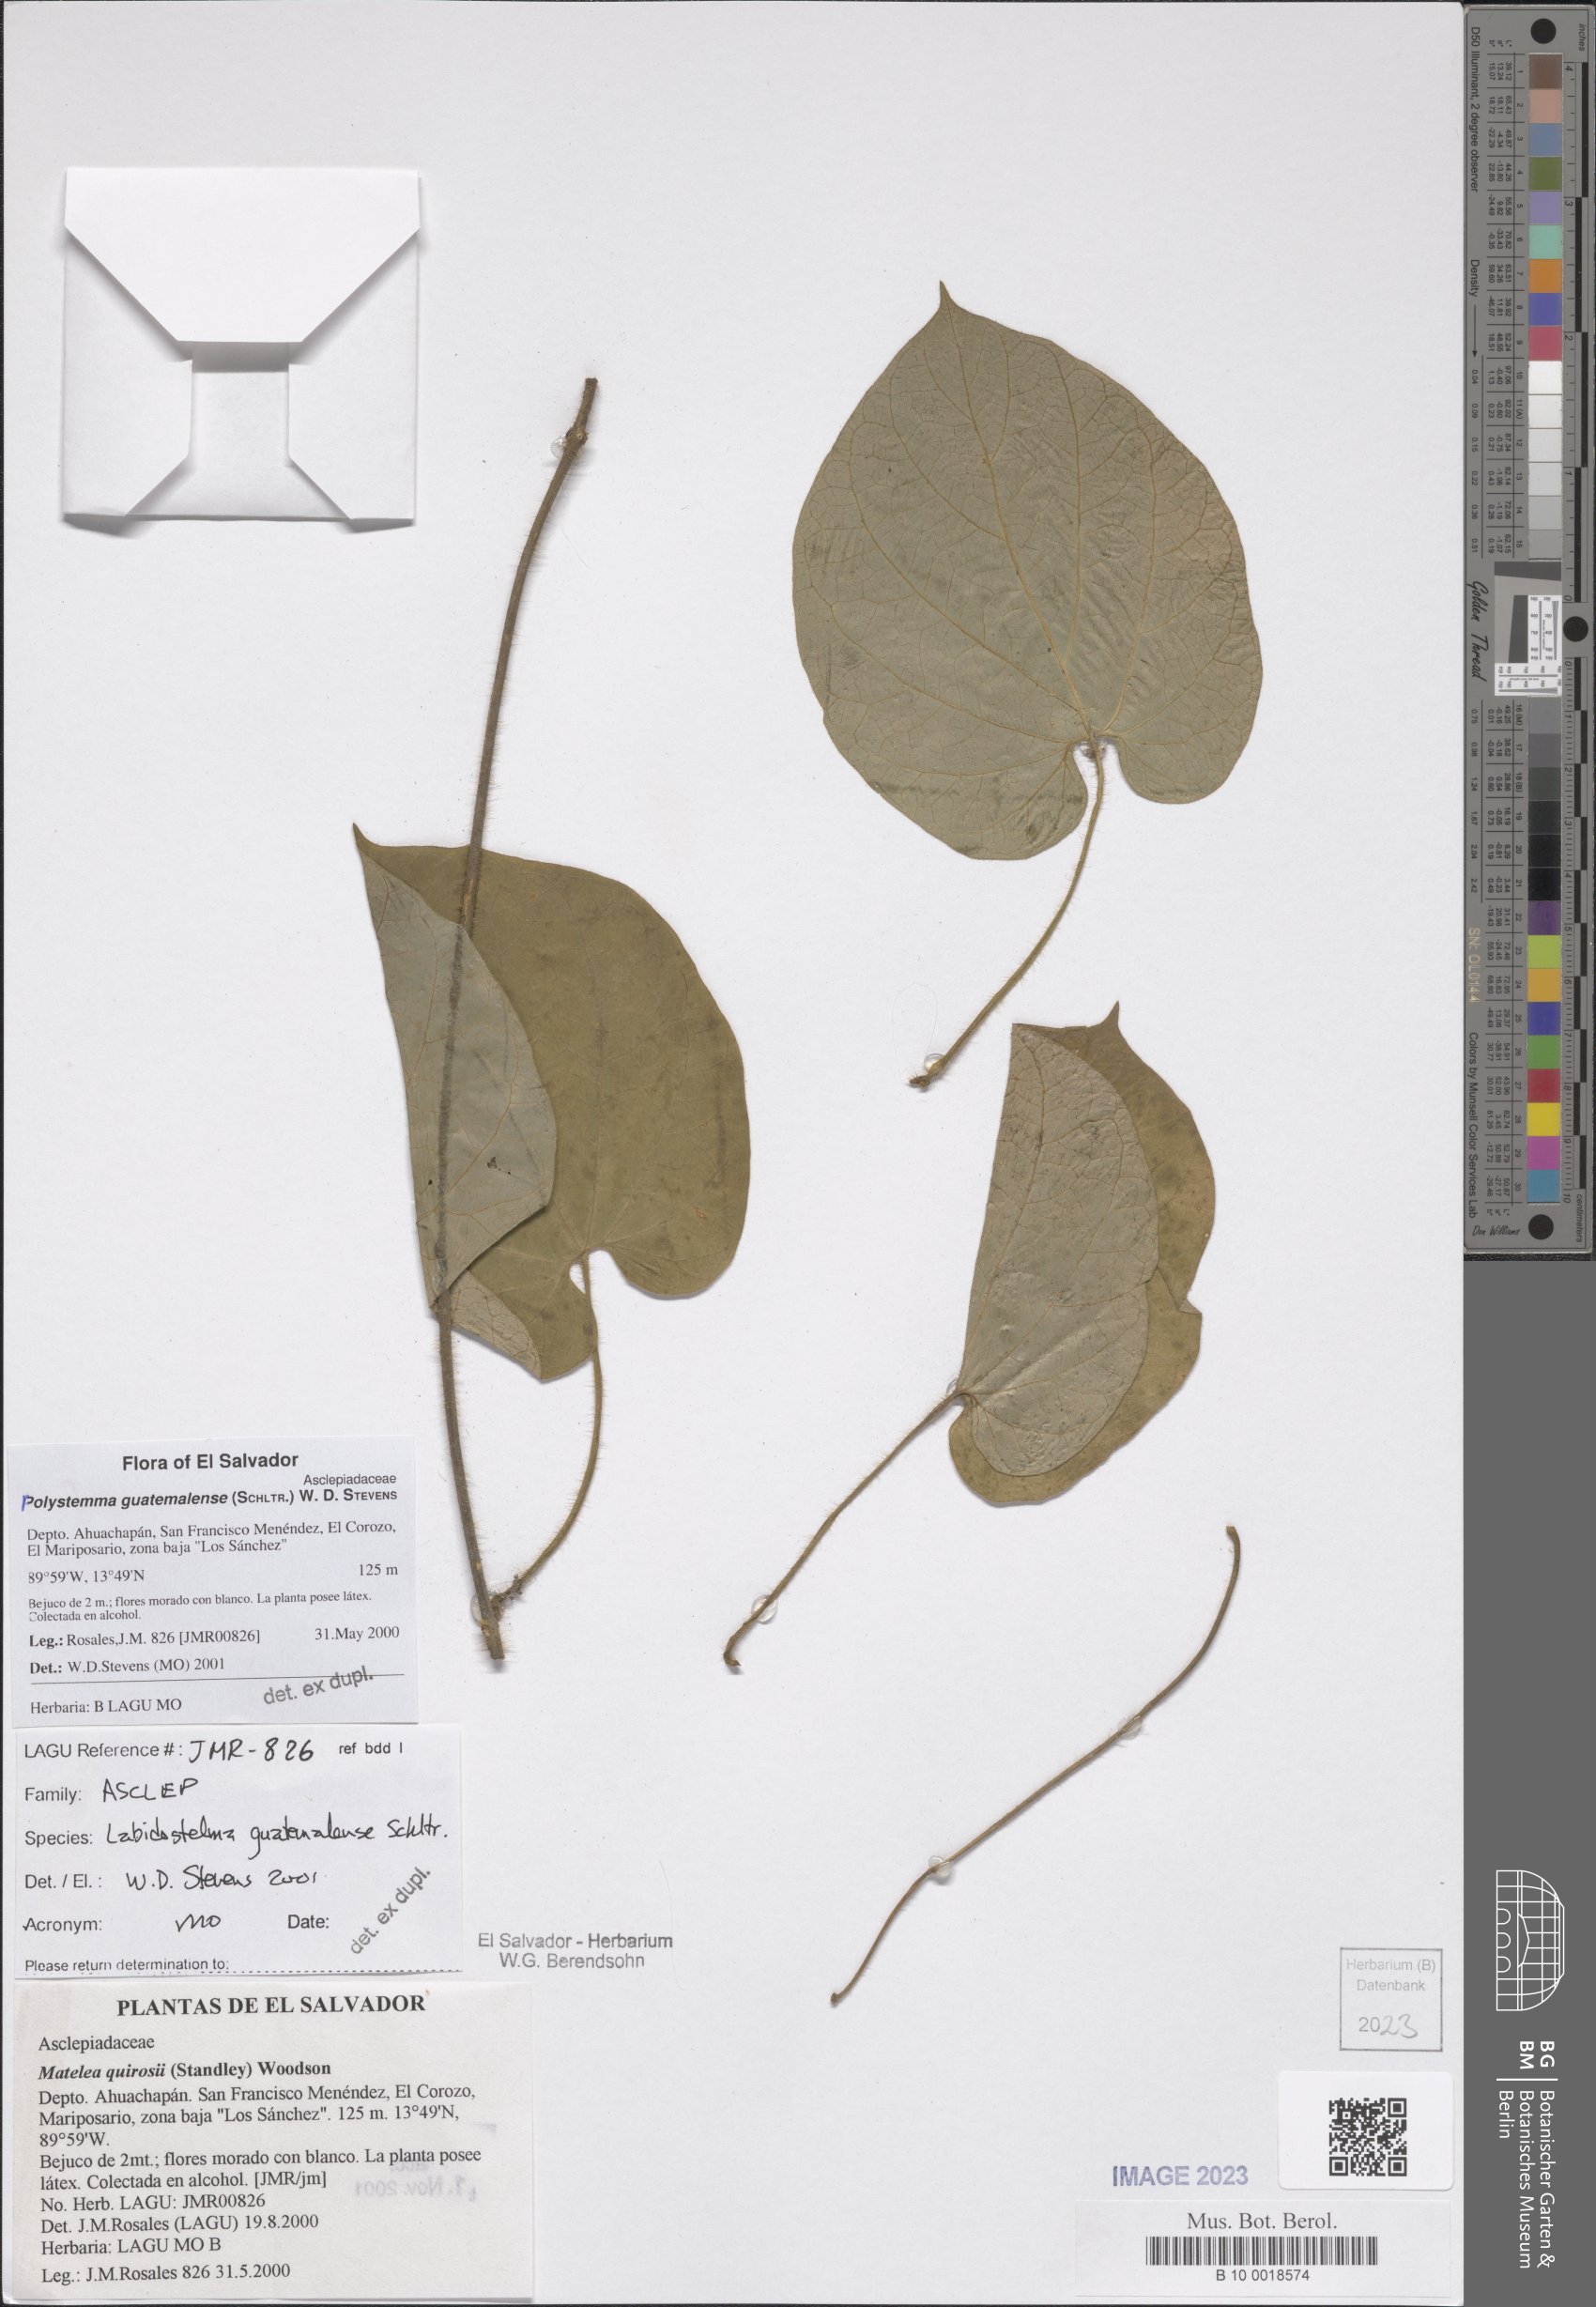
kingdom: Plantae
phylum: Tracheophyta
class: Magnoliopsida
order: Gentianales
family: Apocynaceae
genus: Polystemma
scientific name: Polystemma guatemalense
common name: Arborescente rattan
